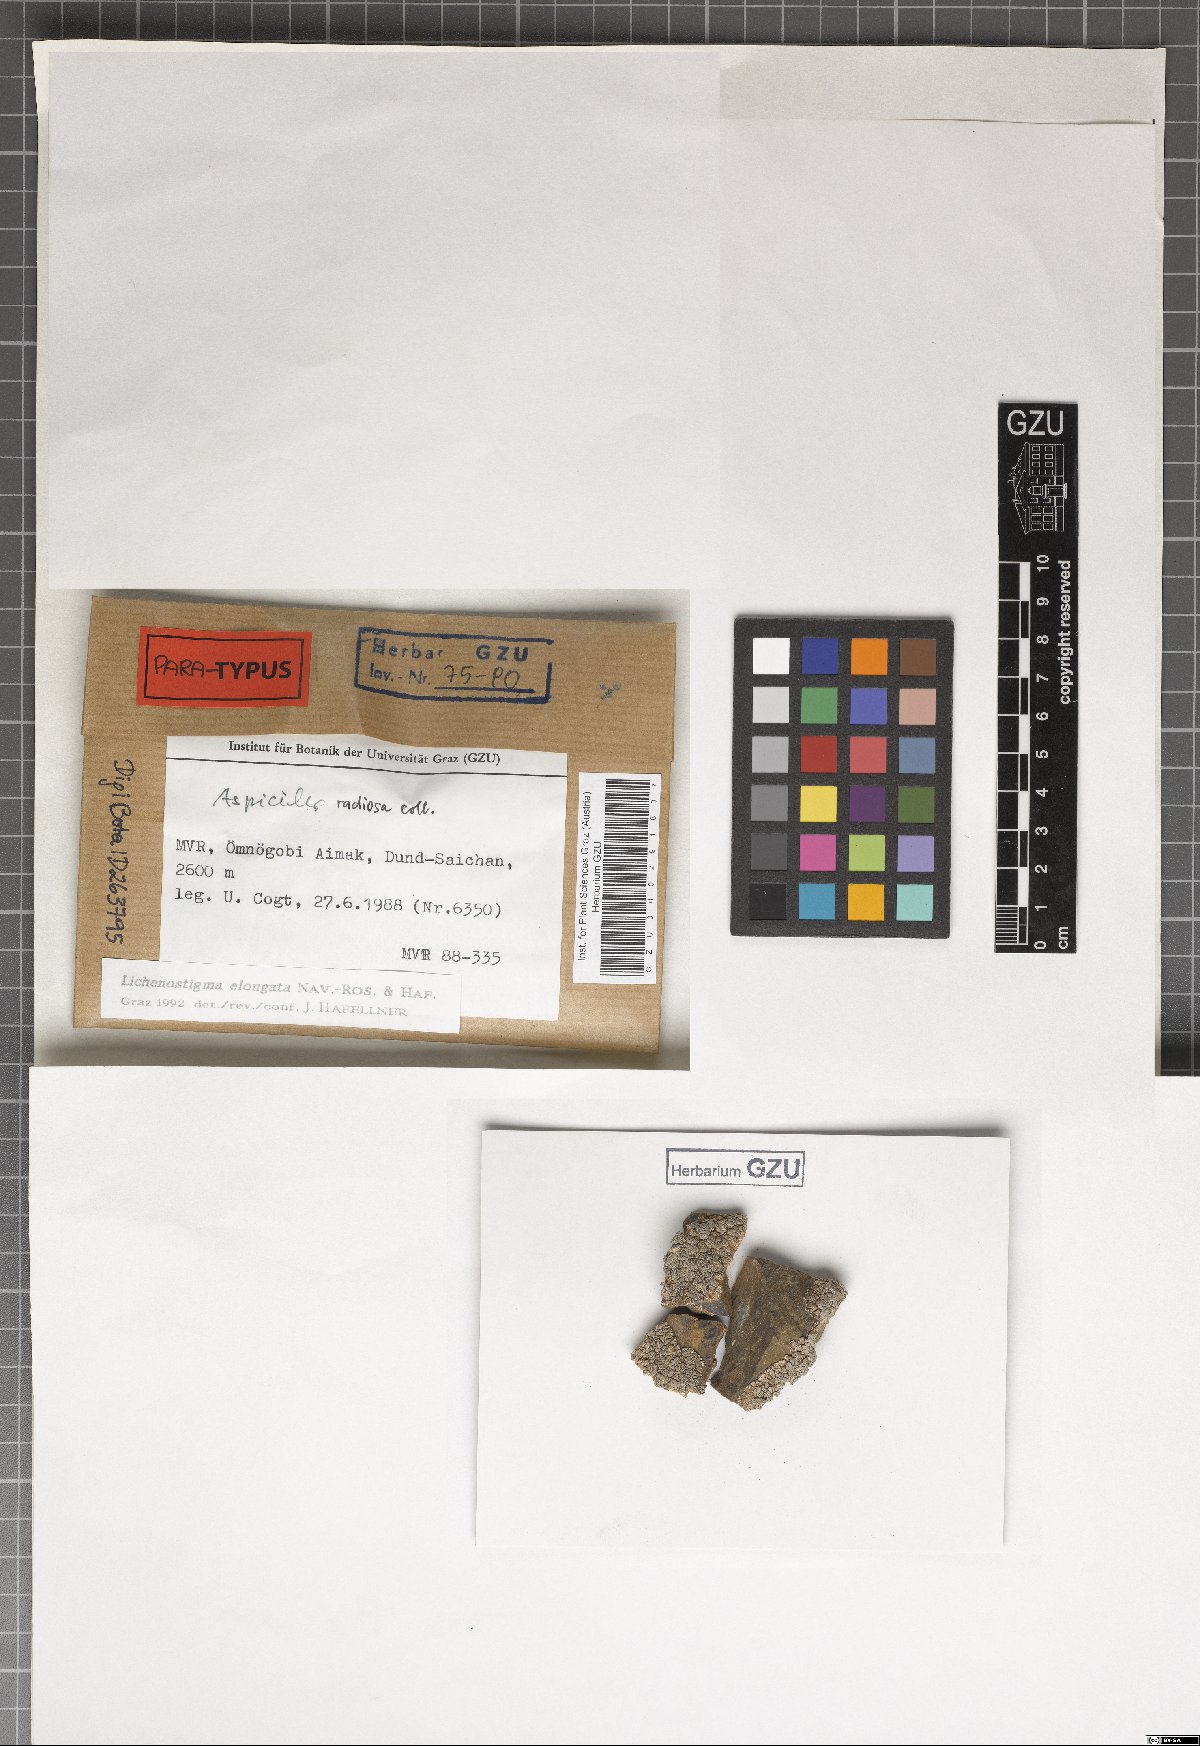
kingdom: Fungi
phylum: Ascomycota
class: Arthoniomycetes
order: Lichenostigmatales
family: Phaeococcomycetaceae
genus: Lichenostigma
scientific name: Lichenostigma elongatum
